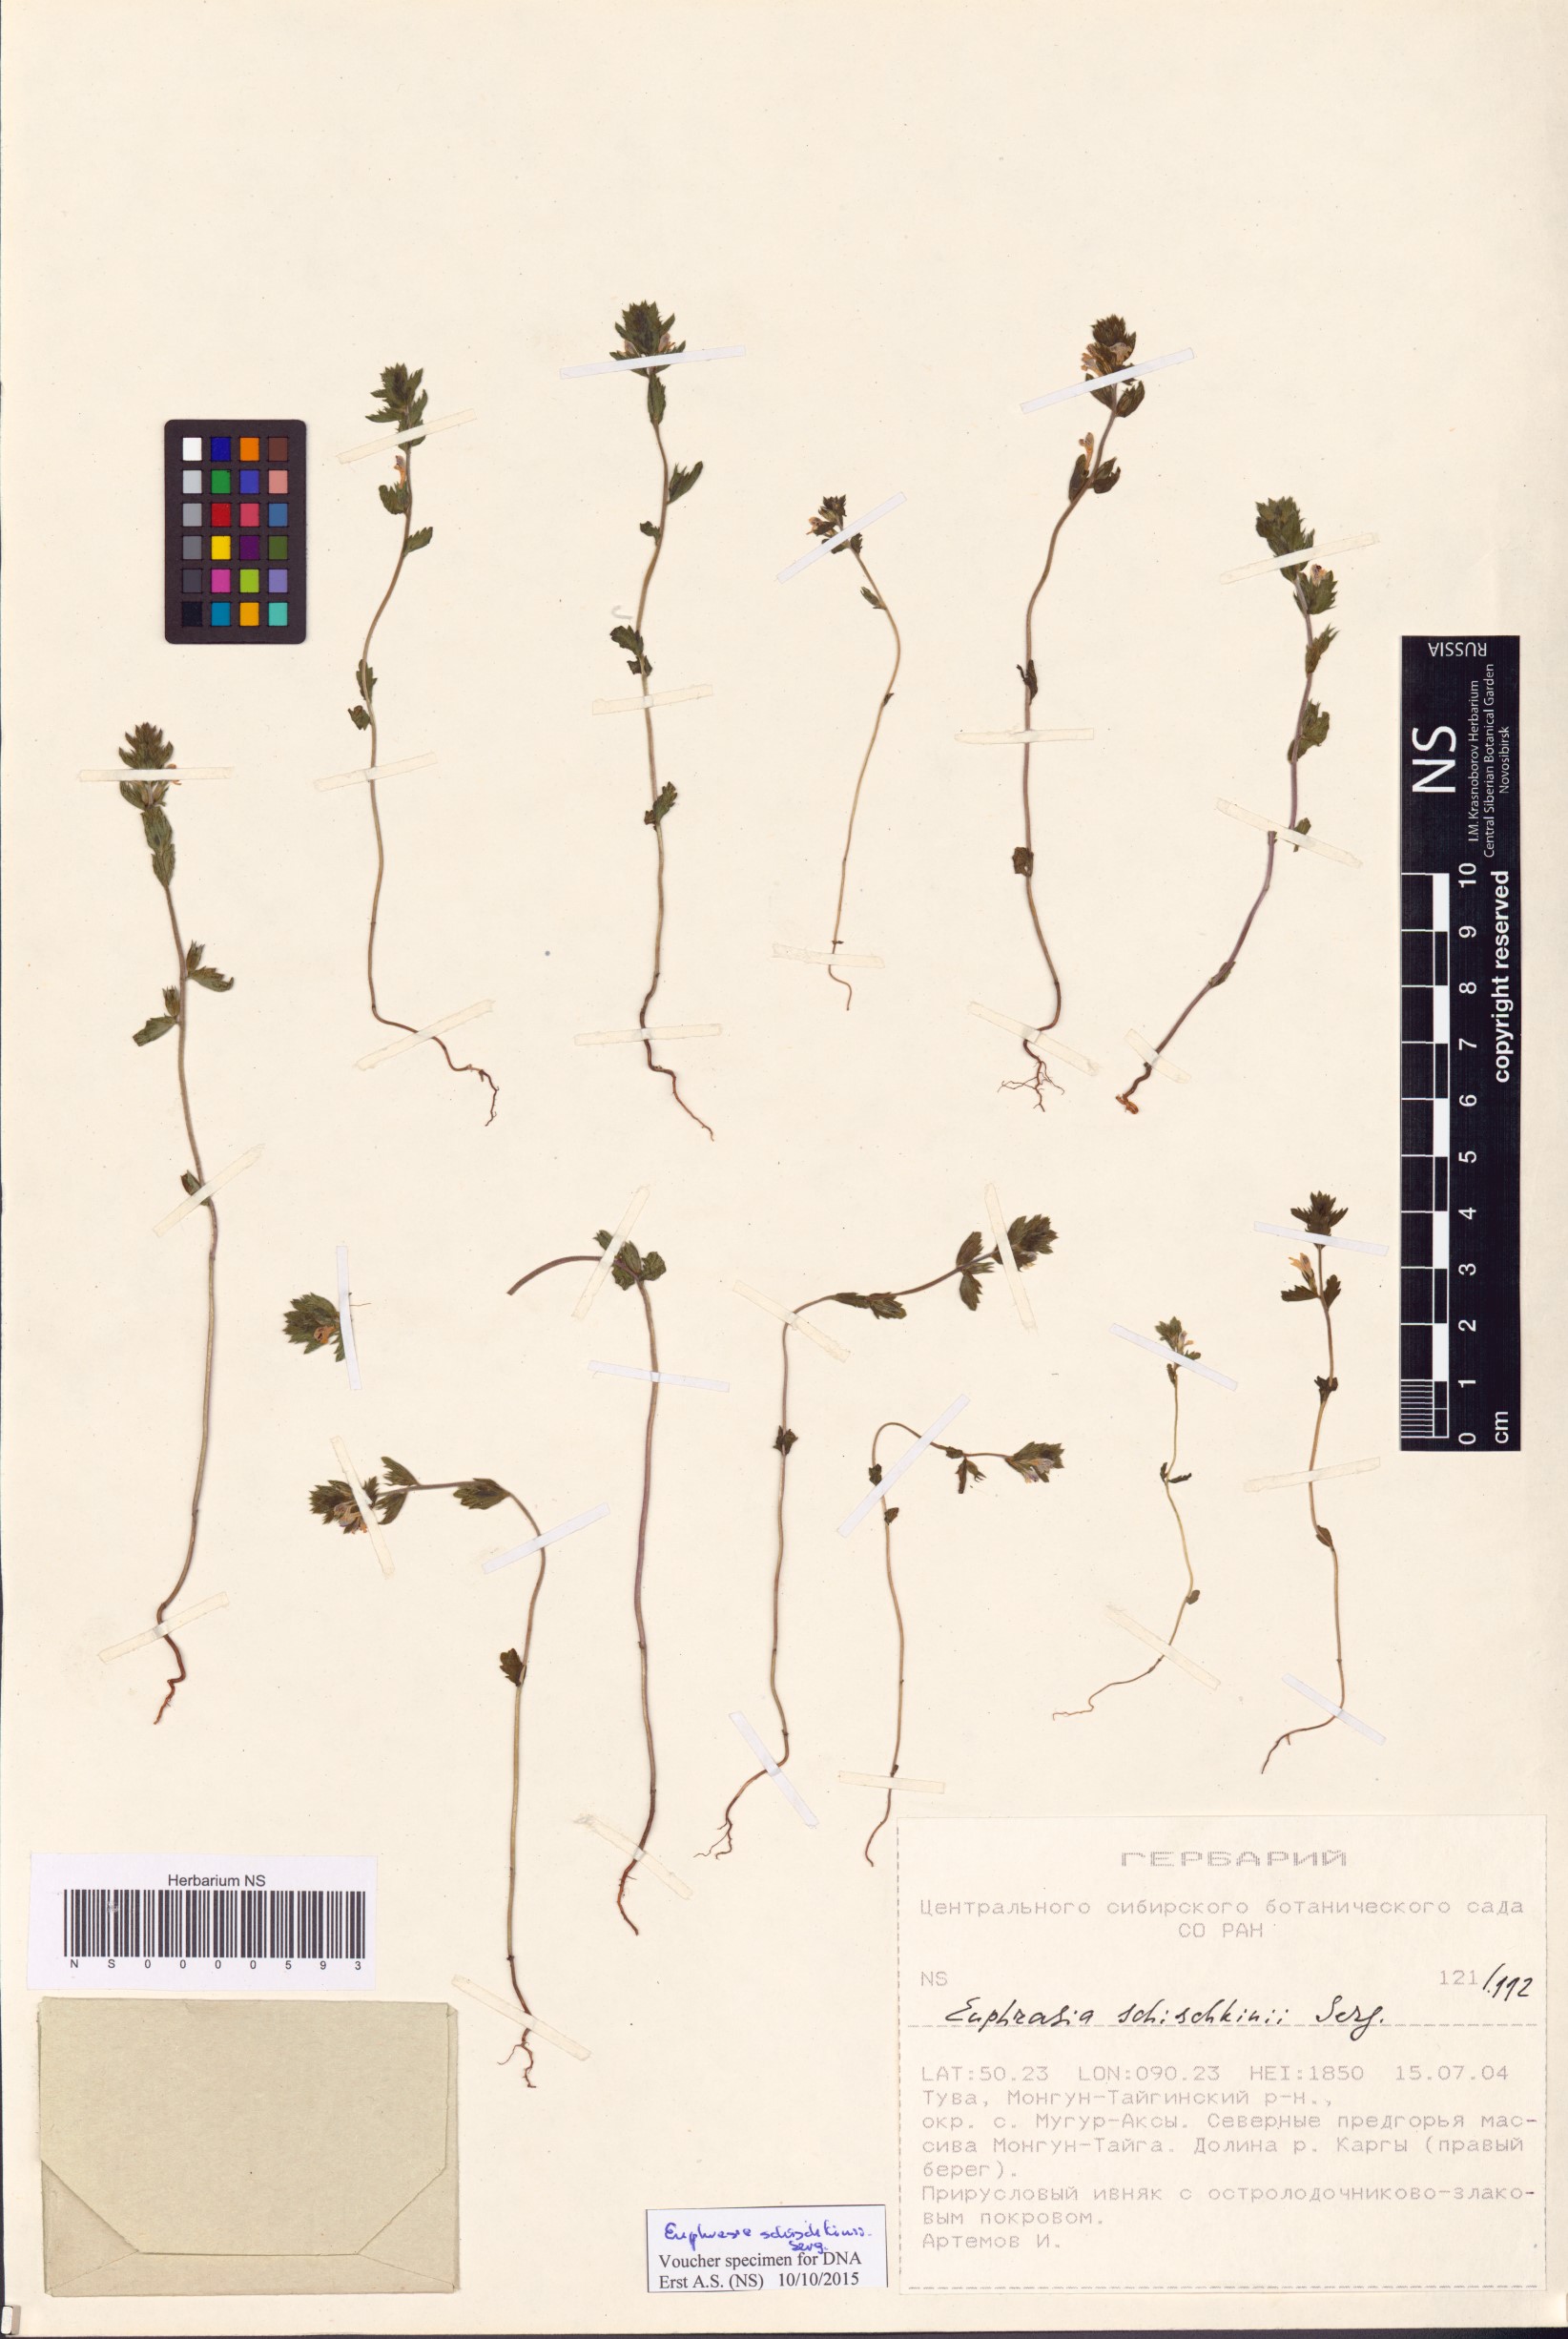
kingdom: Plantae
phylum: Tracheophyta
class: Magnoliopsida
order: Lamiales
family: Orobanchaceae
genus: Euphrasia
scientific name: Euphrasia schischkinii
